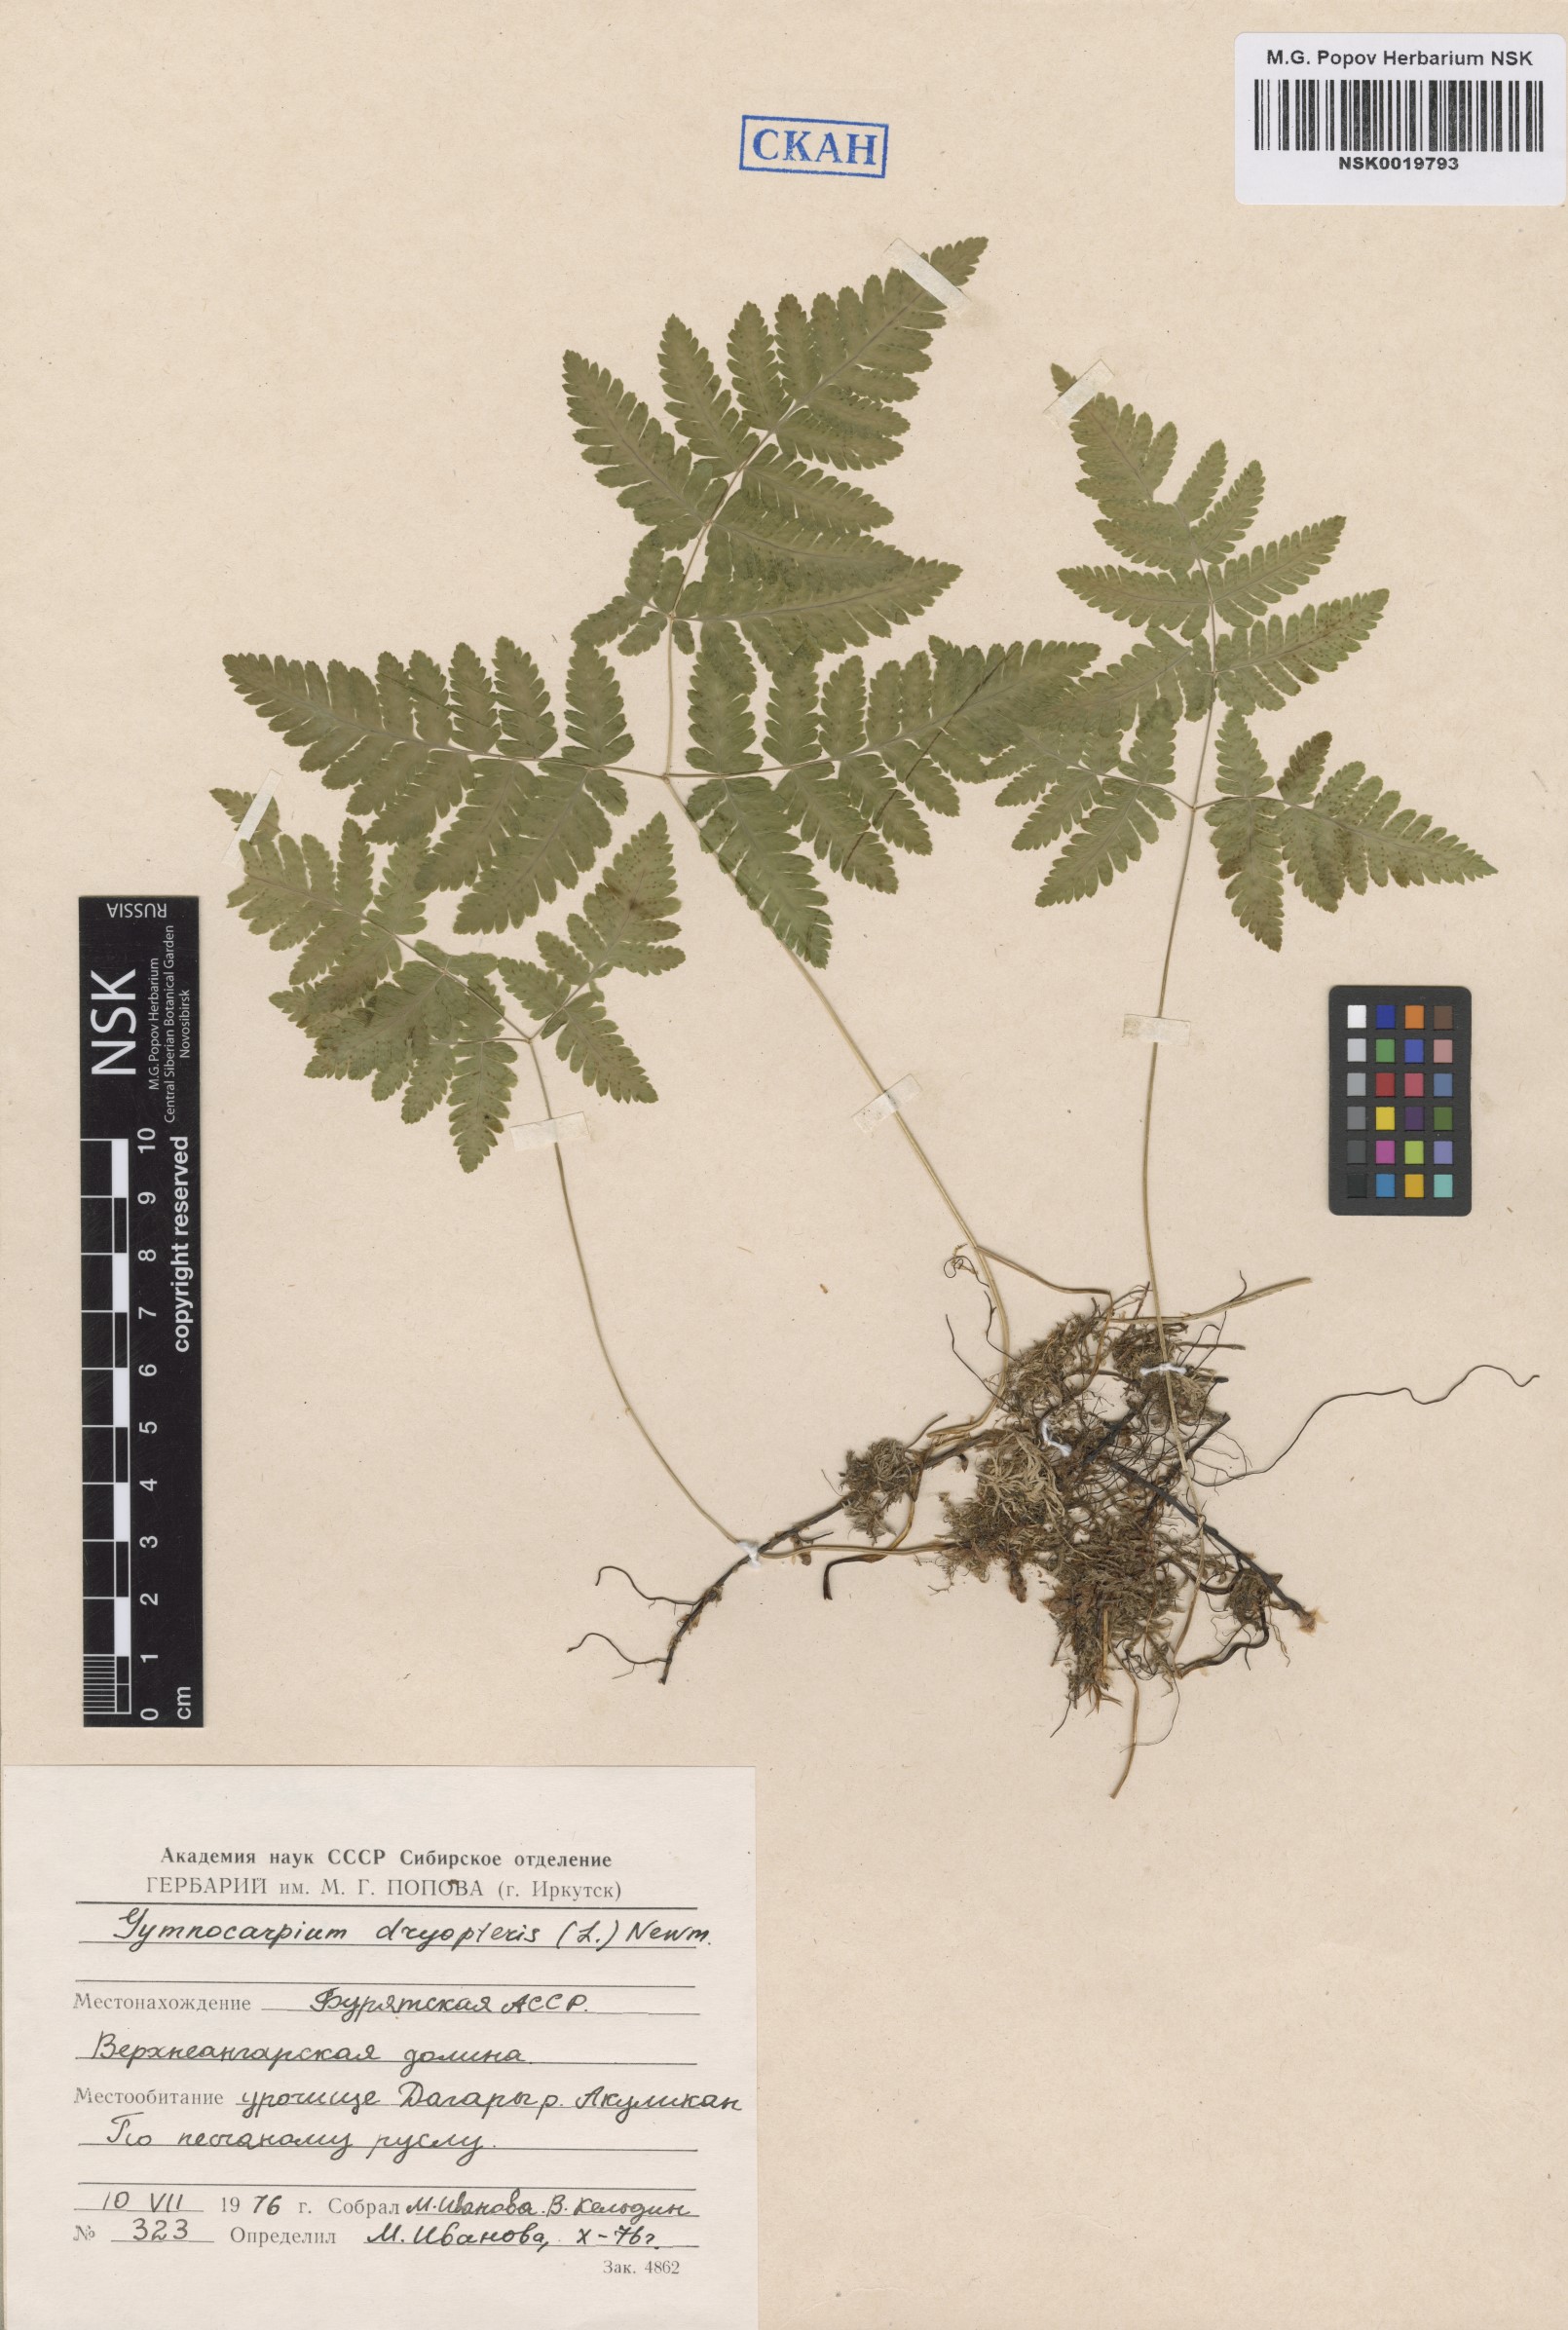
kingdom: Plantae
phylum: Tracheophyta
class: Polypodiopsida
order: Polypodiales
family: Cystopteridaceae
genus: Gymnocarpium
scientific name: Gymnocarpium dryopteris
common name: Oak fern
